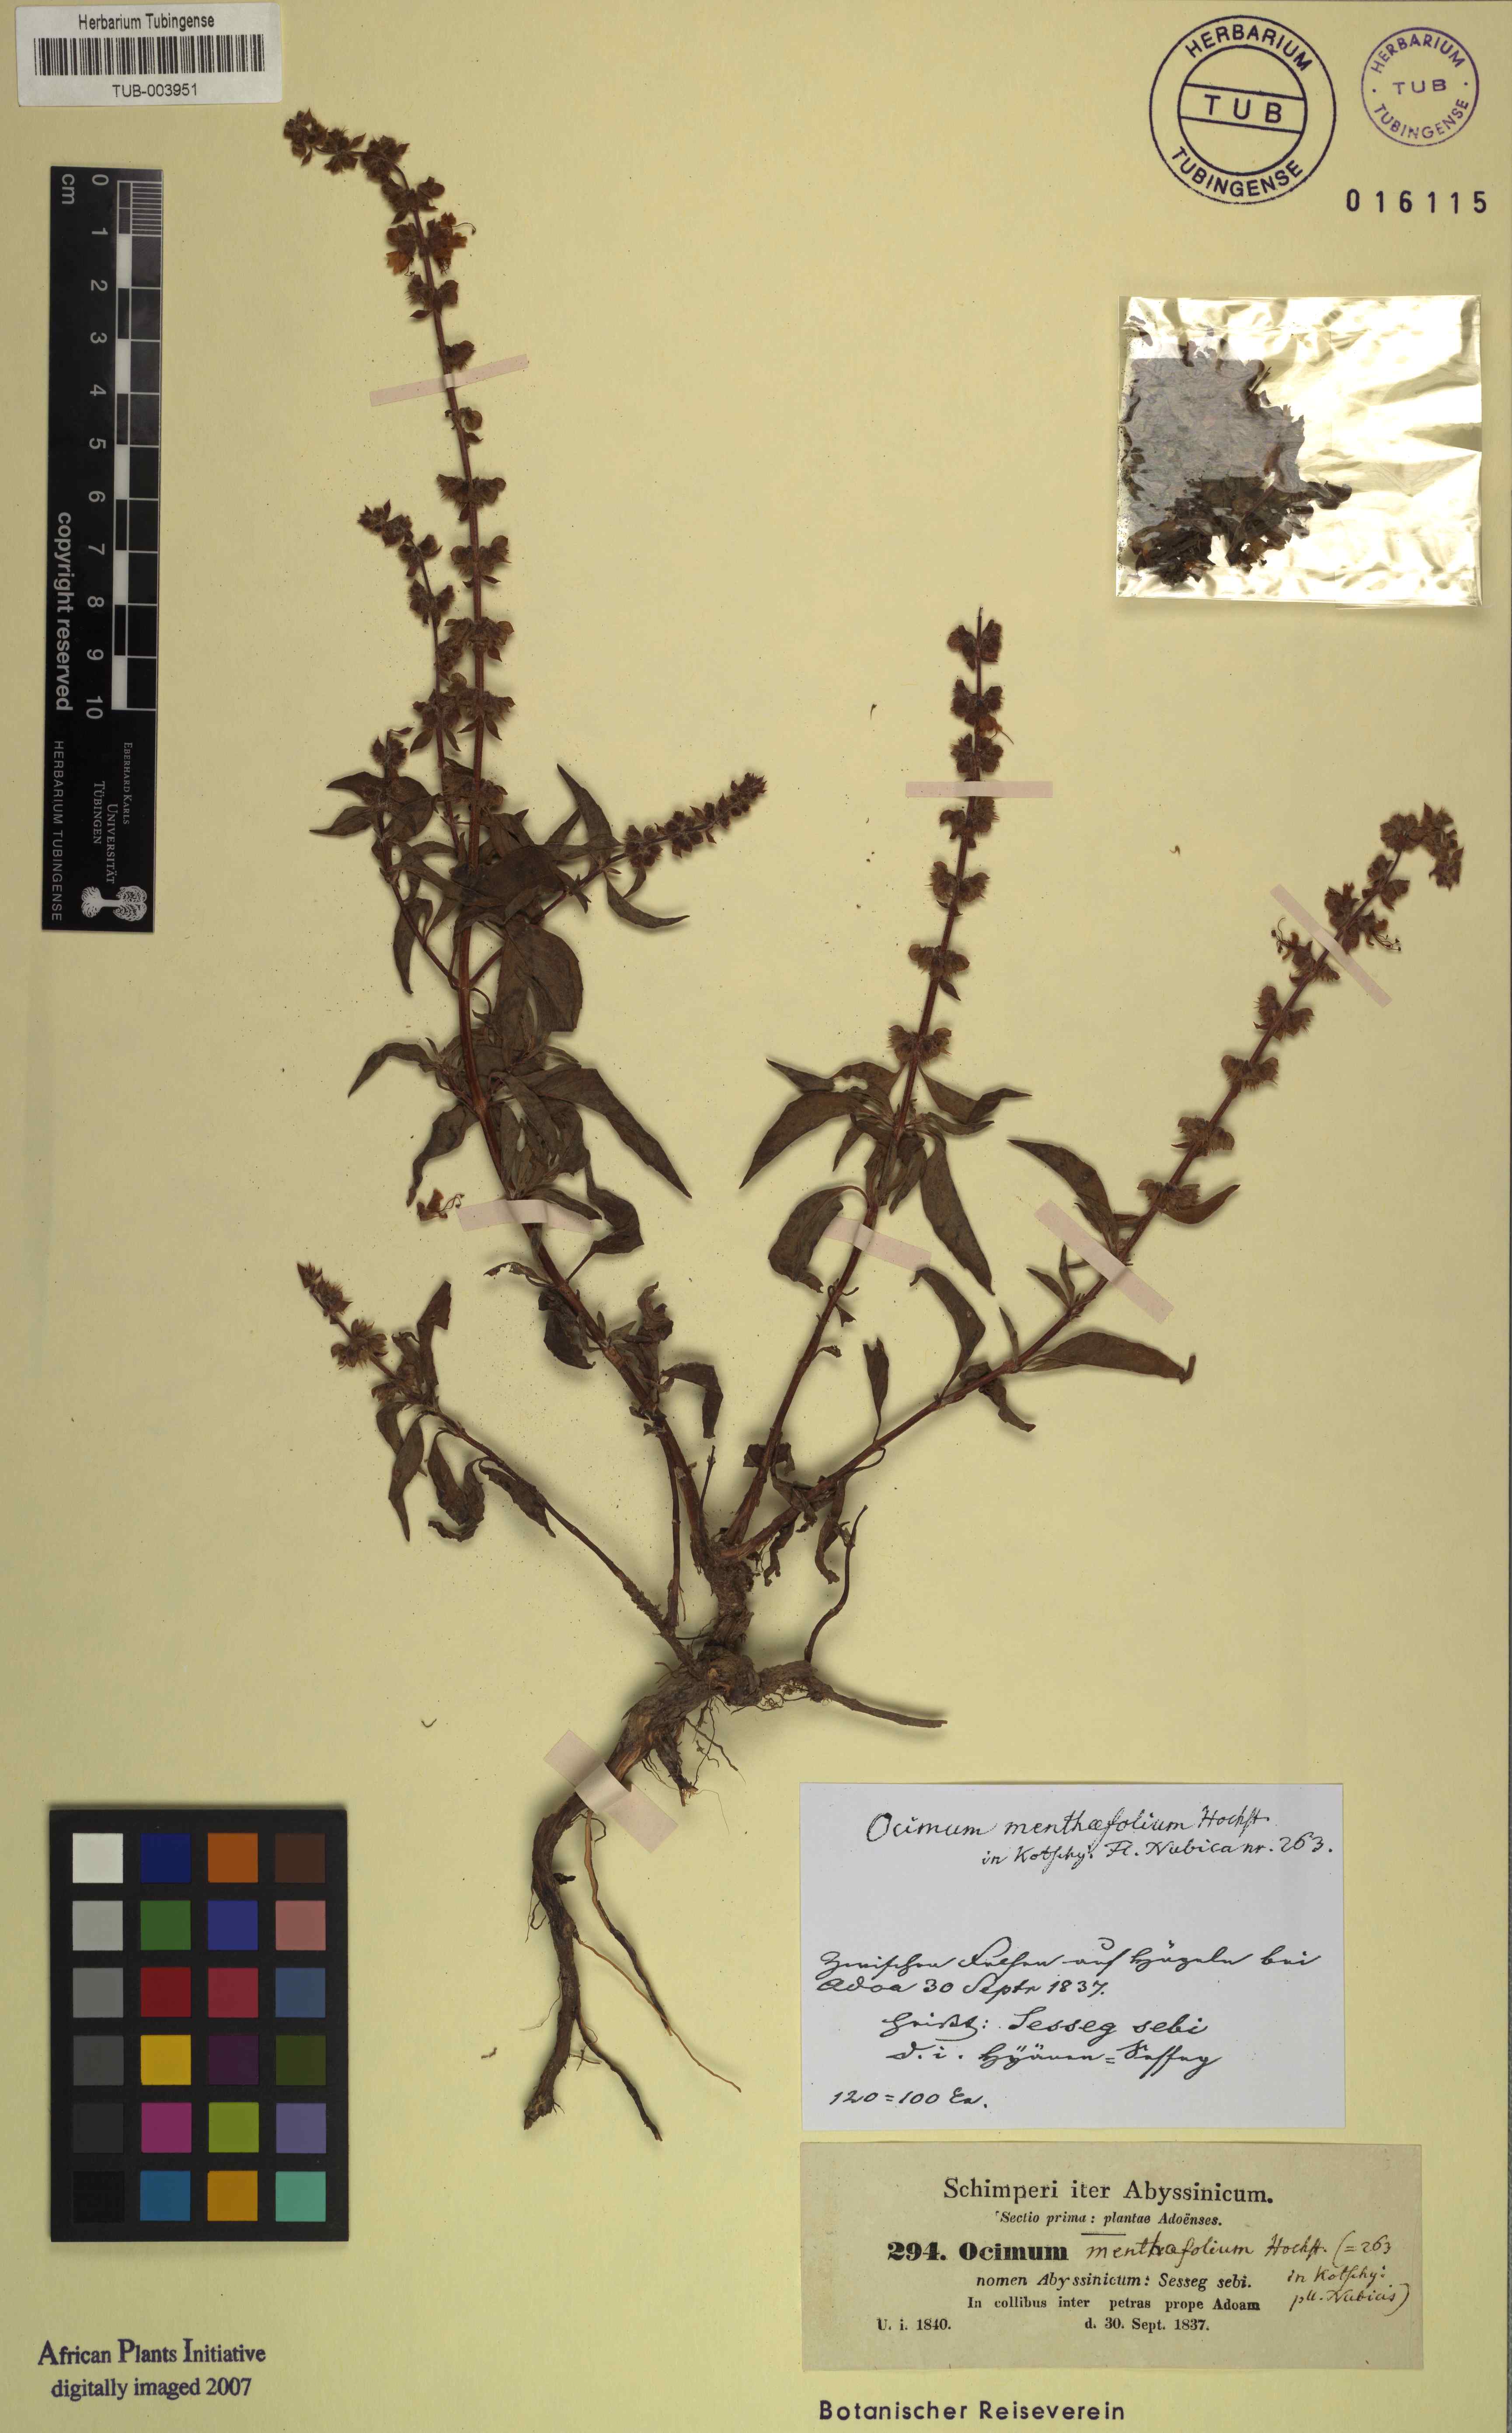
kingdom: Plantae
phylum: Tracheophyta
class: Magnoliopsida
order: Lamiales
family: Lamiaceae
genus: Ocimum
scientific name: Ocimum forskoelei
